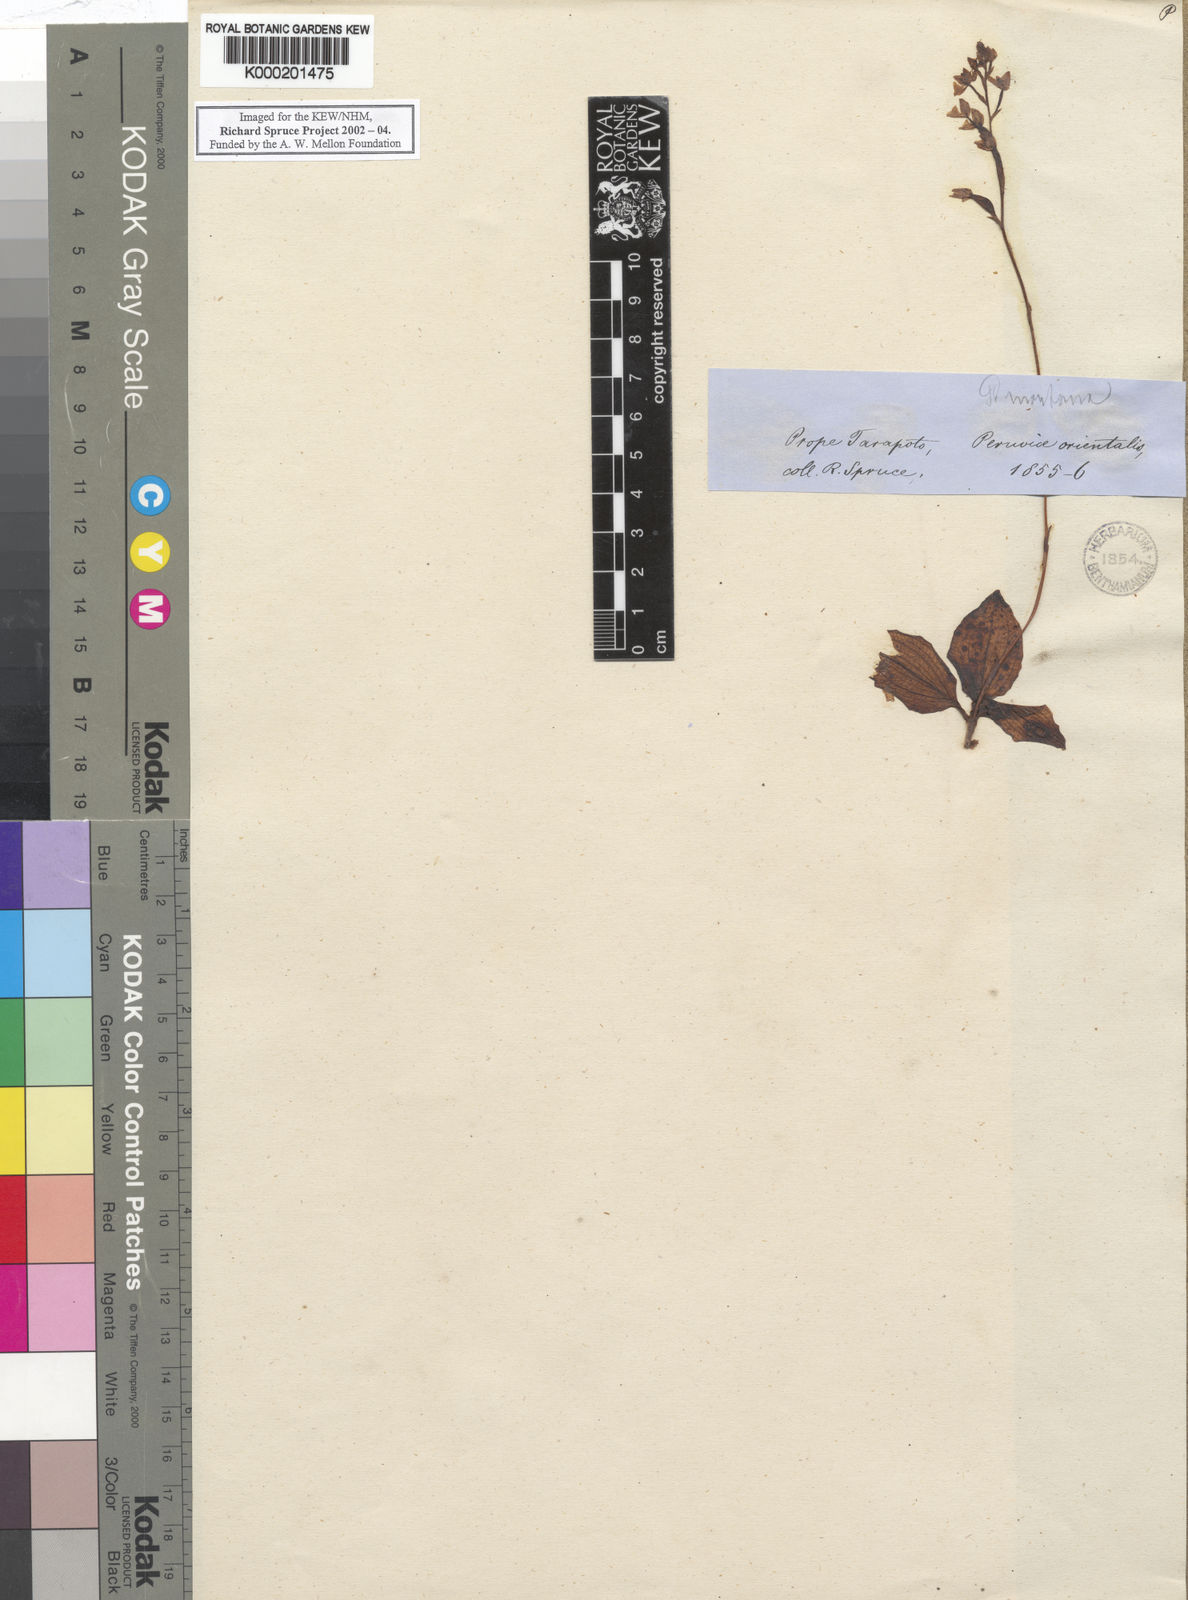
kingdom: Plantae
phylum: Tracheophyta
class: Liliopsida
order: Asparagales
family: Orchidaceae
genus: Ponthieva
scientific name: Ponthieva
